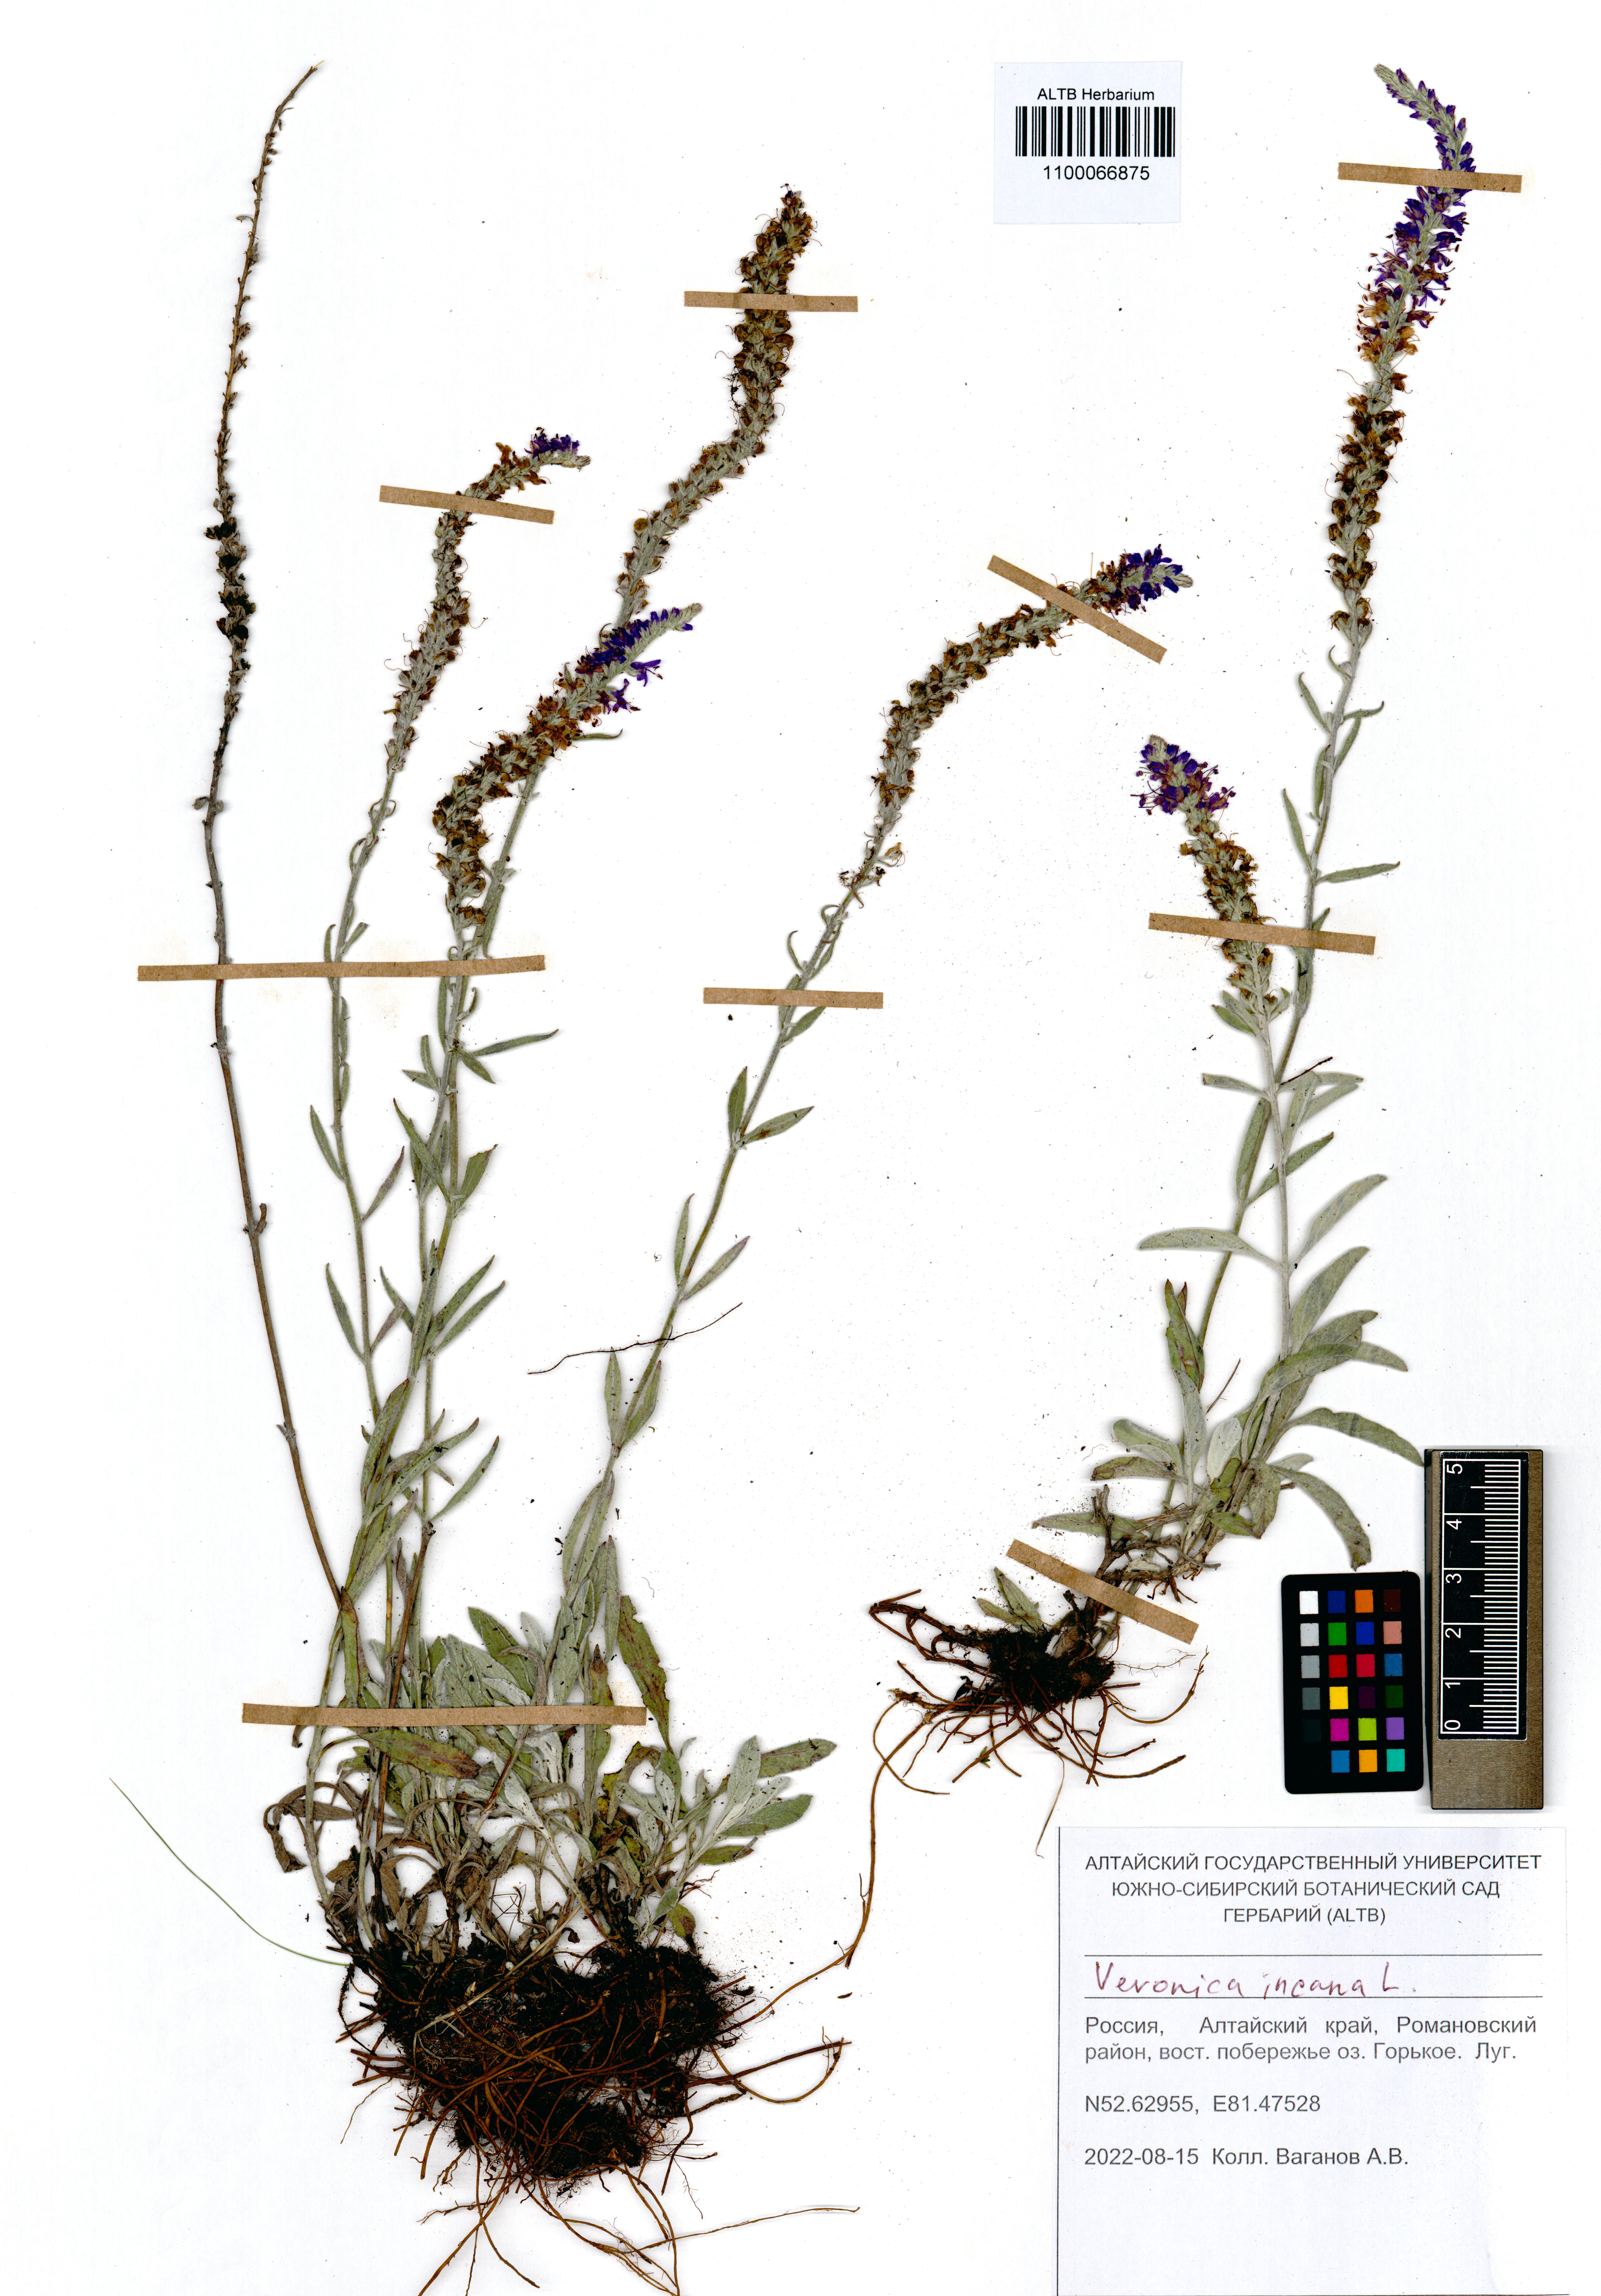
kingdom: Plantae
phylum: Tracheophyta
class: Magnoliopsida
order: Lamiales
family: Plantaginaceae
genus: Veronica
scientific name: Veronica incana
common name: Silver speedwell
